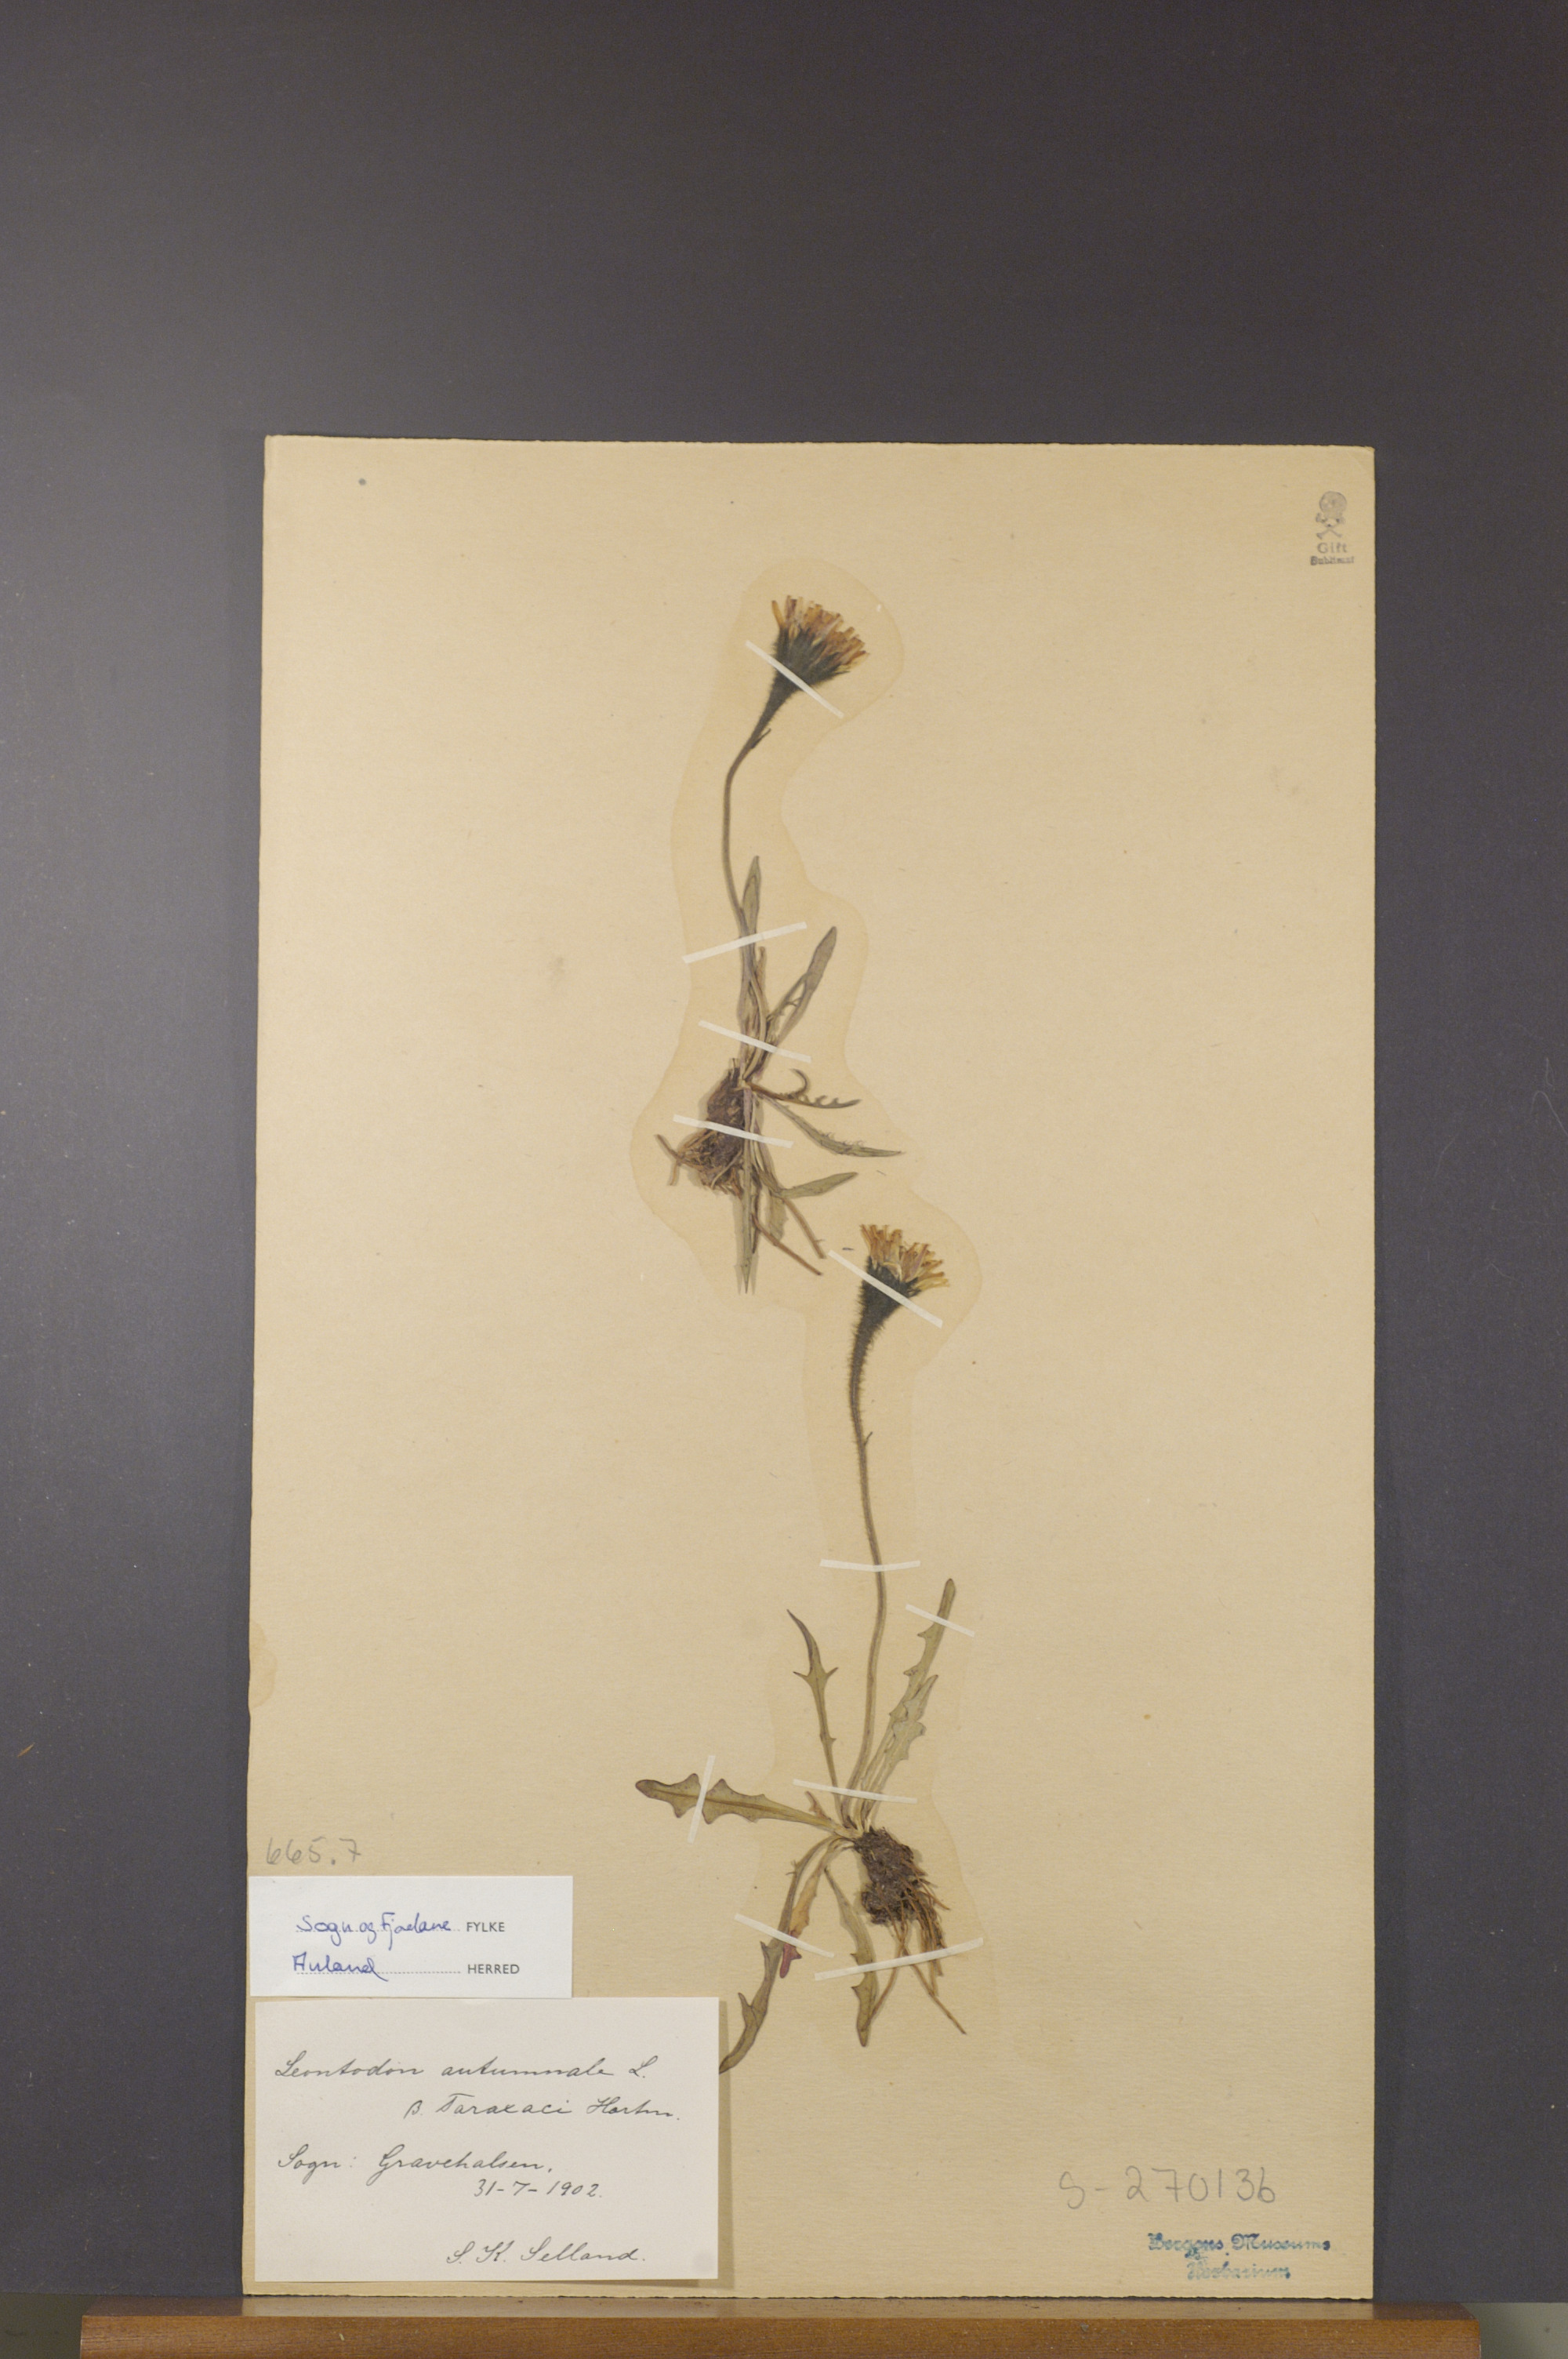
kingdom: Plantae
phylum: Tracheophyta
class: Magnoliopsida
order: Asterales
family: Asteraceae
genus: Scorzoneroides
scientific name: Scorzoneroides autumnalis
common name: Autumn hawkbit
